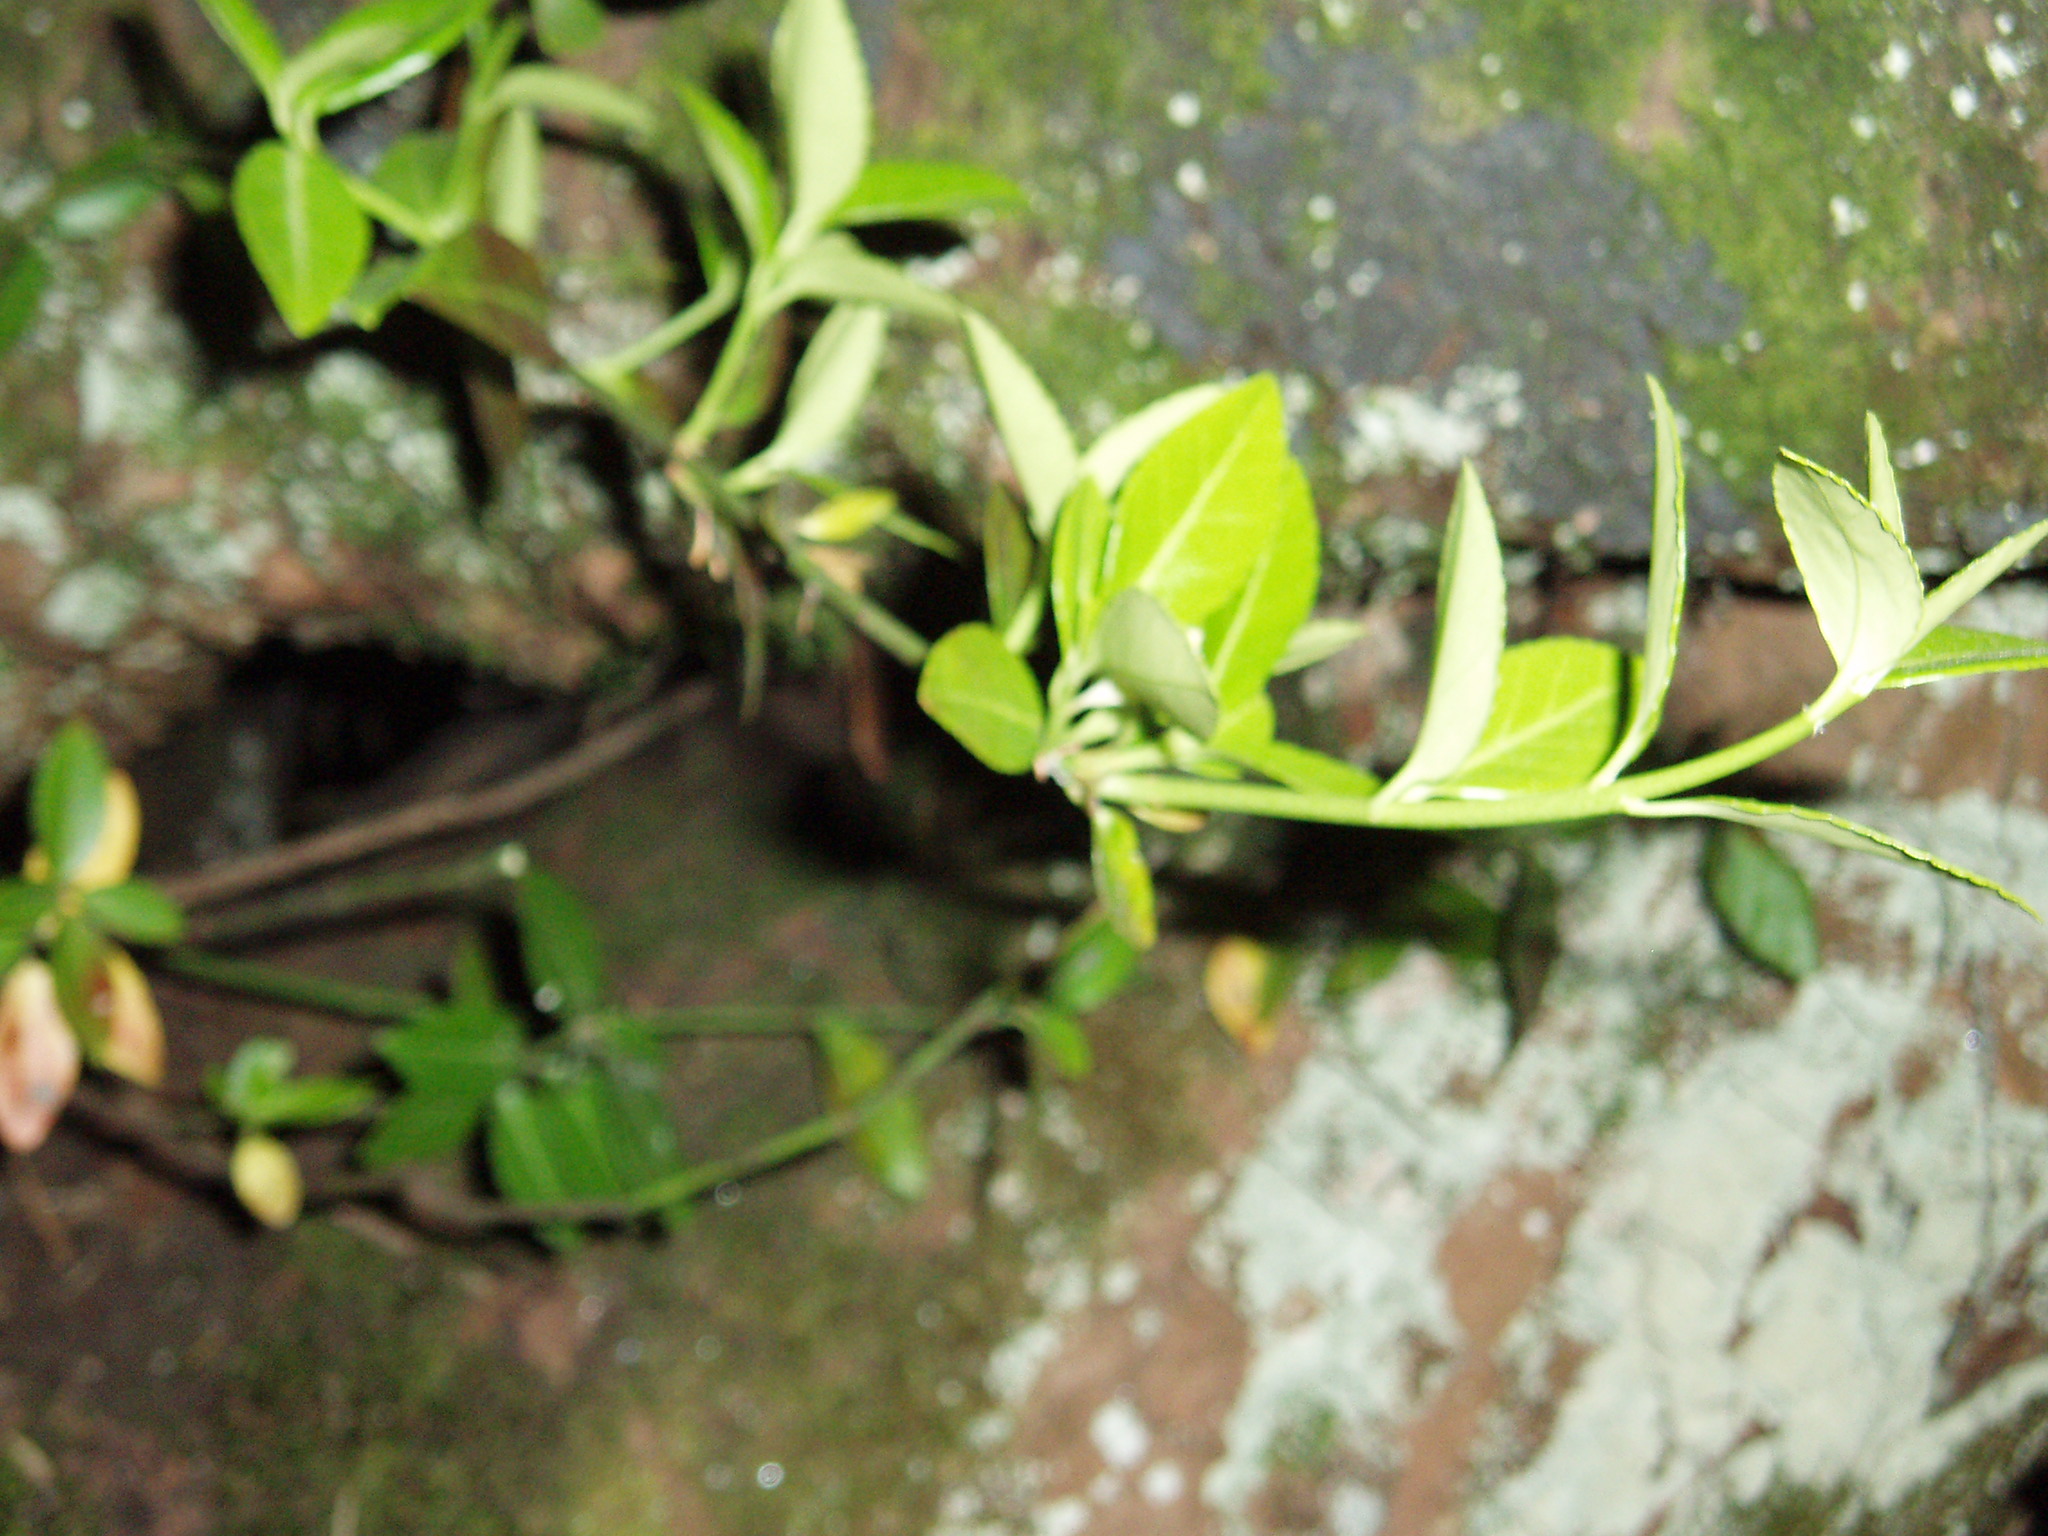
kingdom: Plantae
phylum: Tracheophyta
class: Magnoliopsida
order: Celastrales
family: Celastraceae
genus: Euonymus
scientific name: Euonymus japonicus
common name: Japanese spindletree
